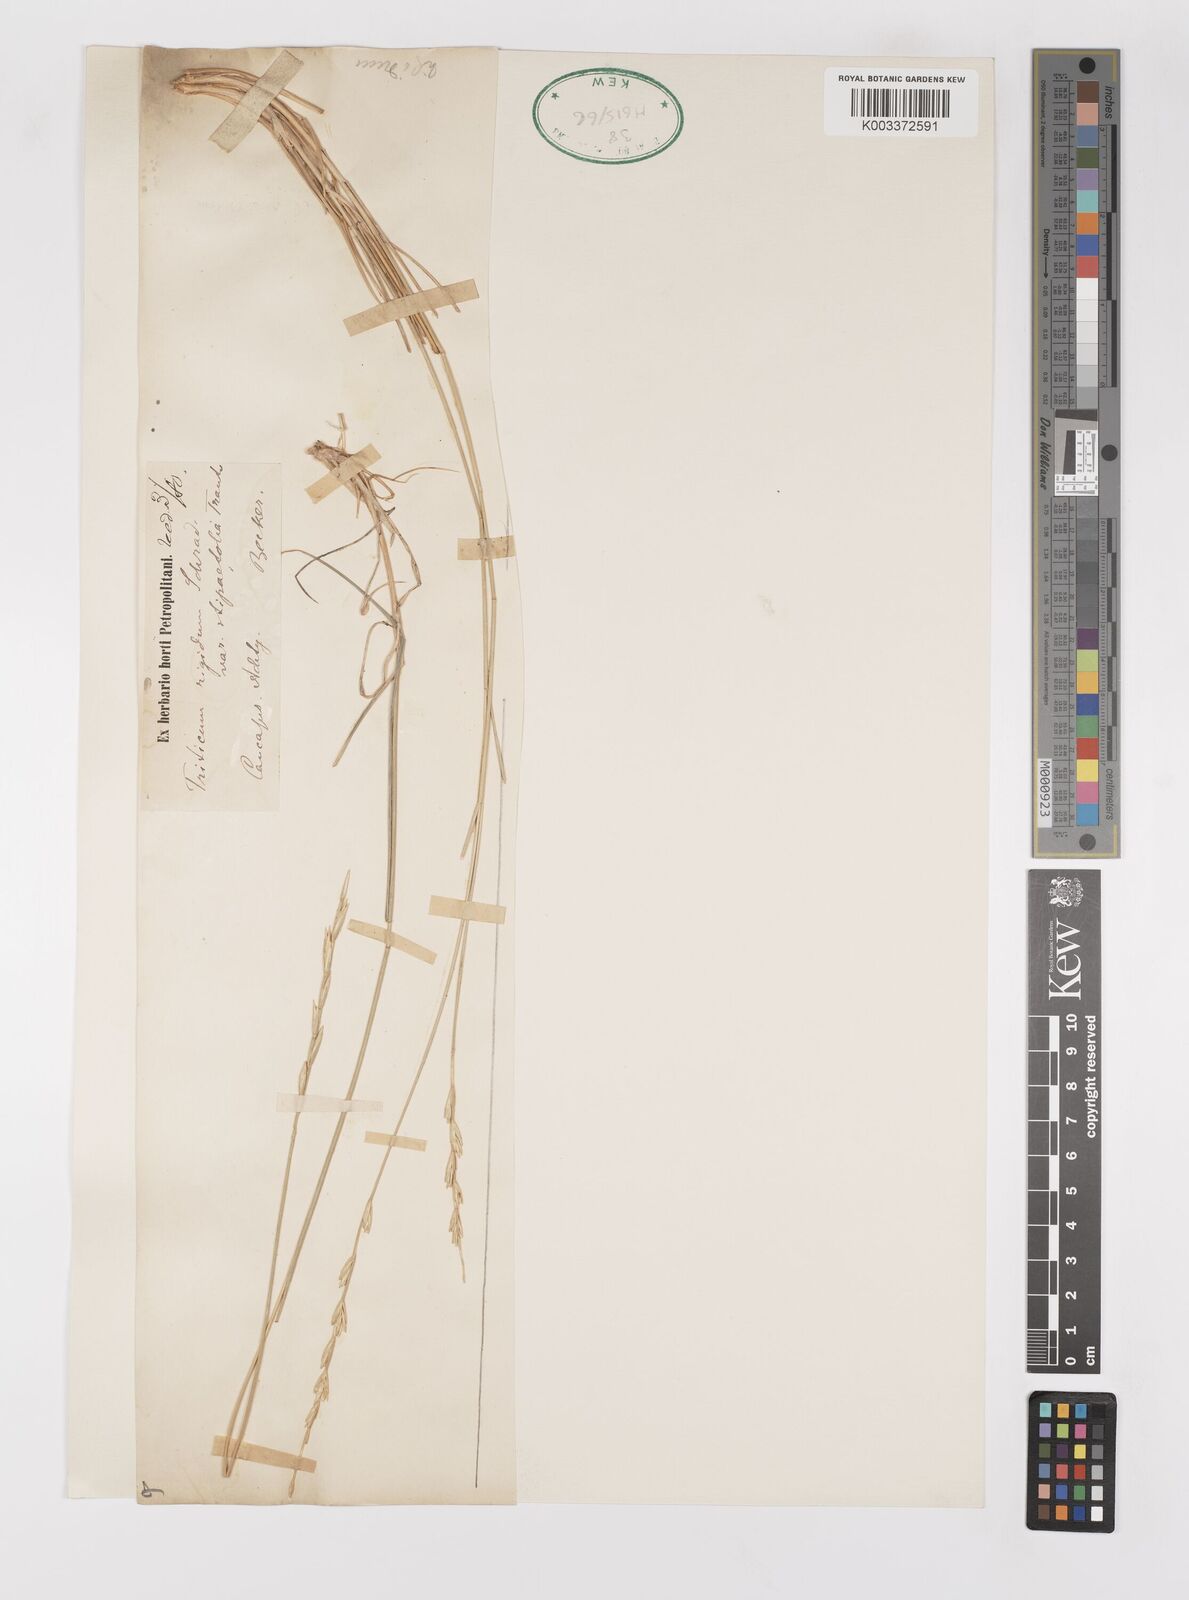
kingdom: Plantae
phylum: Tracheophyta
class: Liliopsida
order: Poales
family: Poaceae
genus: Elymus
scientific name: Elymus troctolepis
